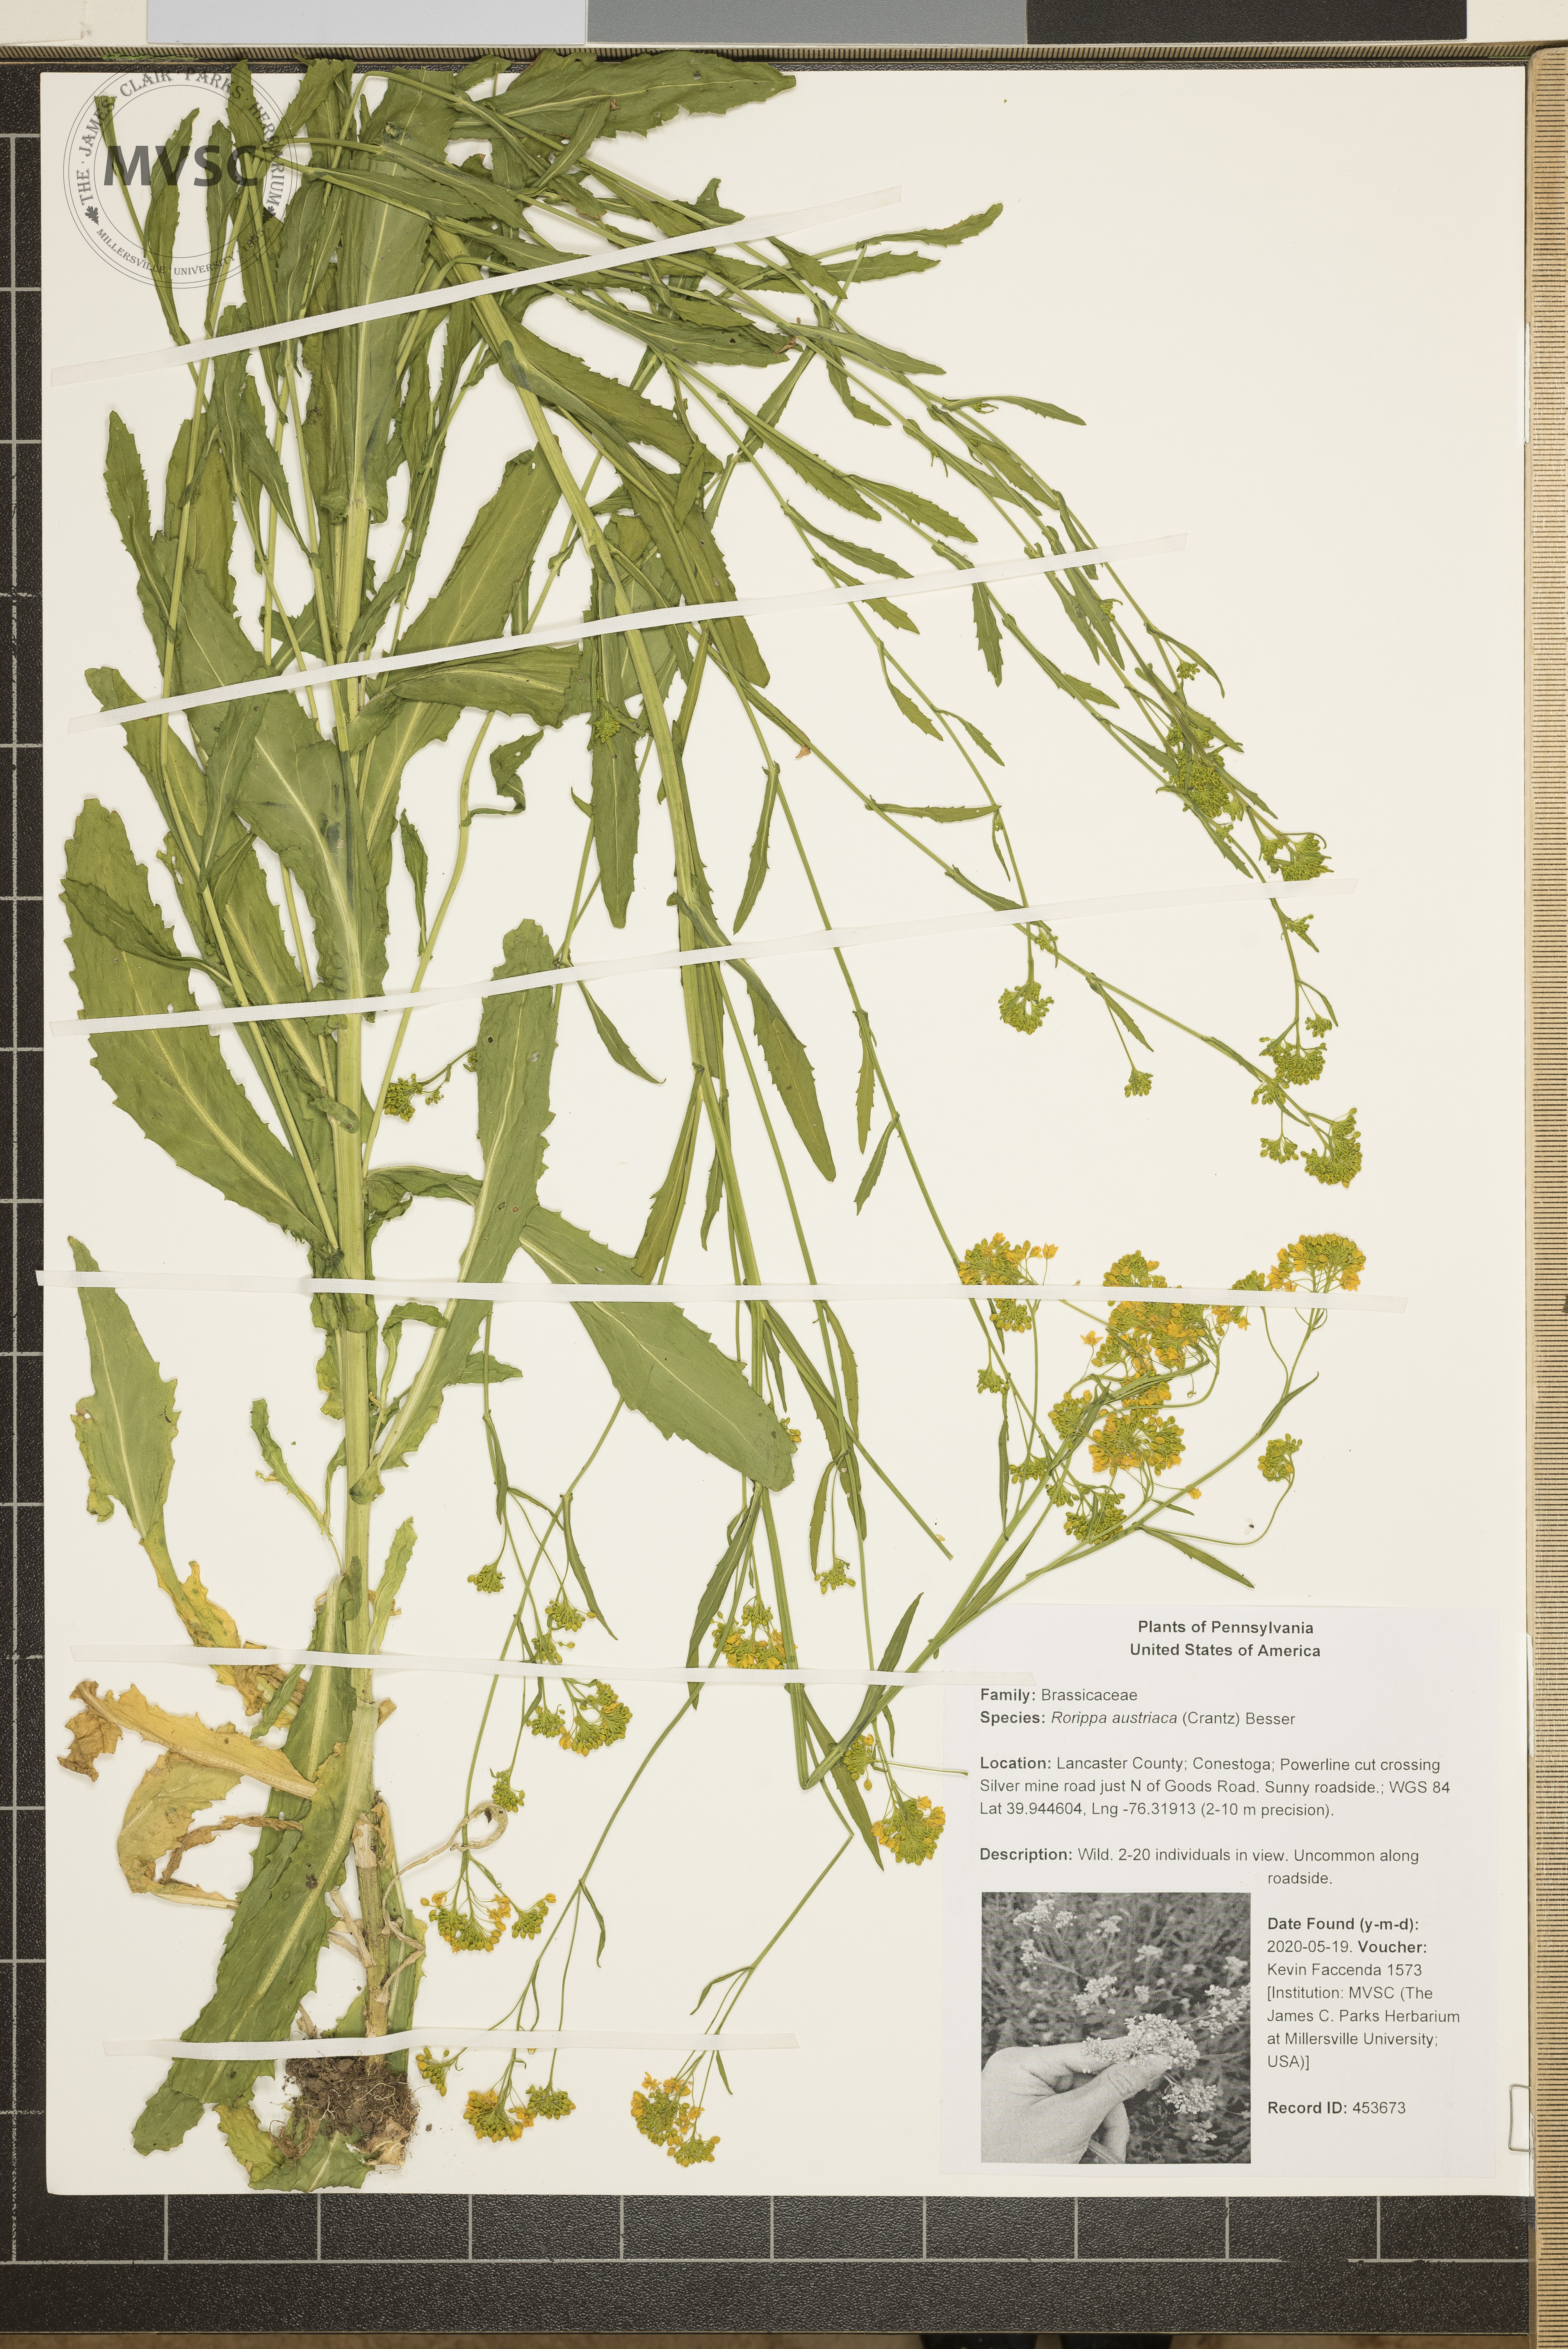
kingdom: Plantae
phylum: Tracheophyta
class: Magnoliopsida
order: Brassicales
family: Brassicaceae
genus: Rorippa
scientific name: Rorippa austriaca
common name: Austrian yellow-cress
